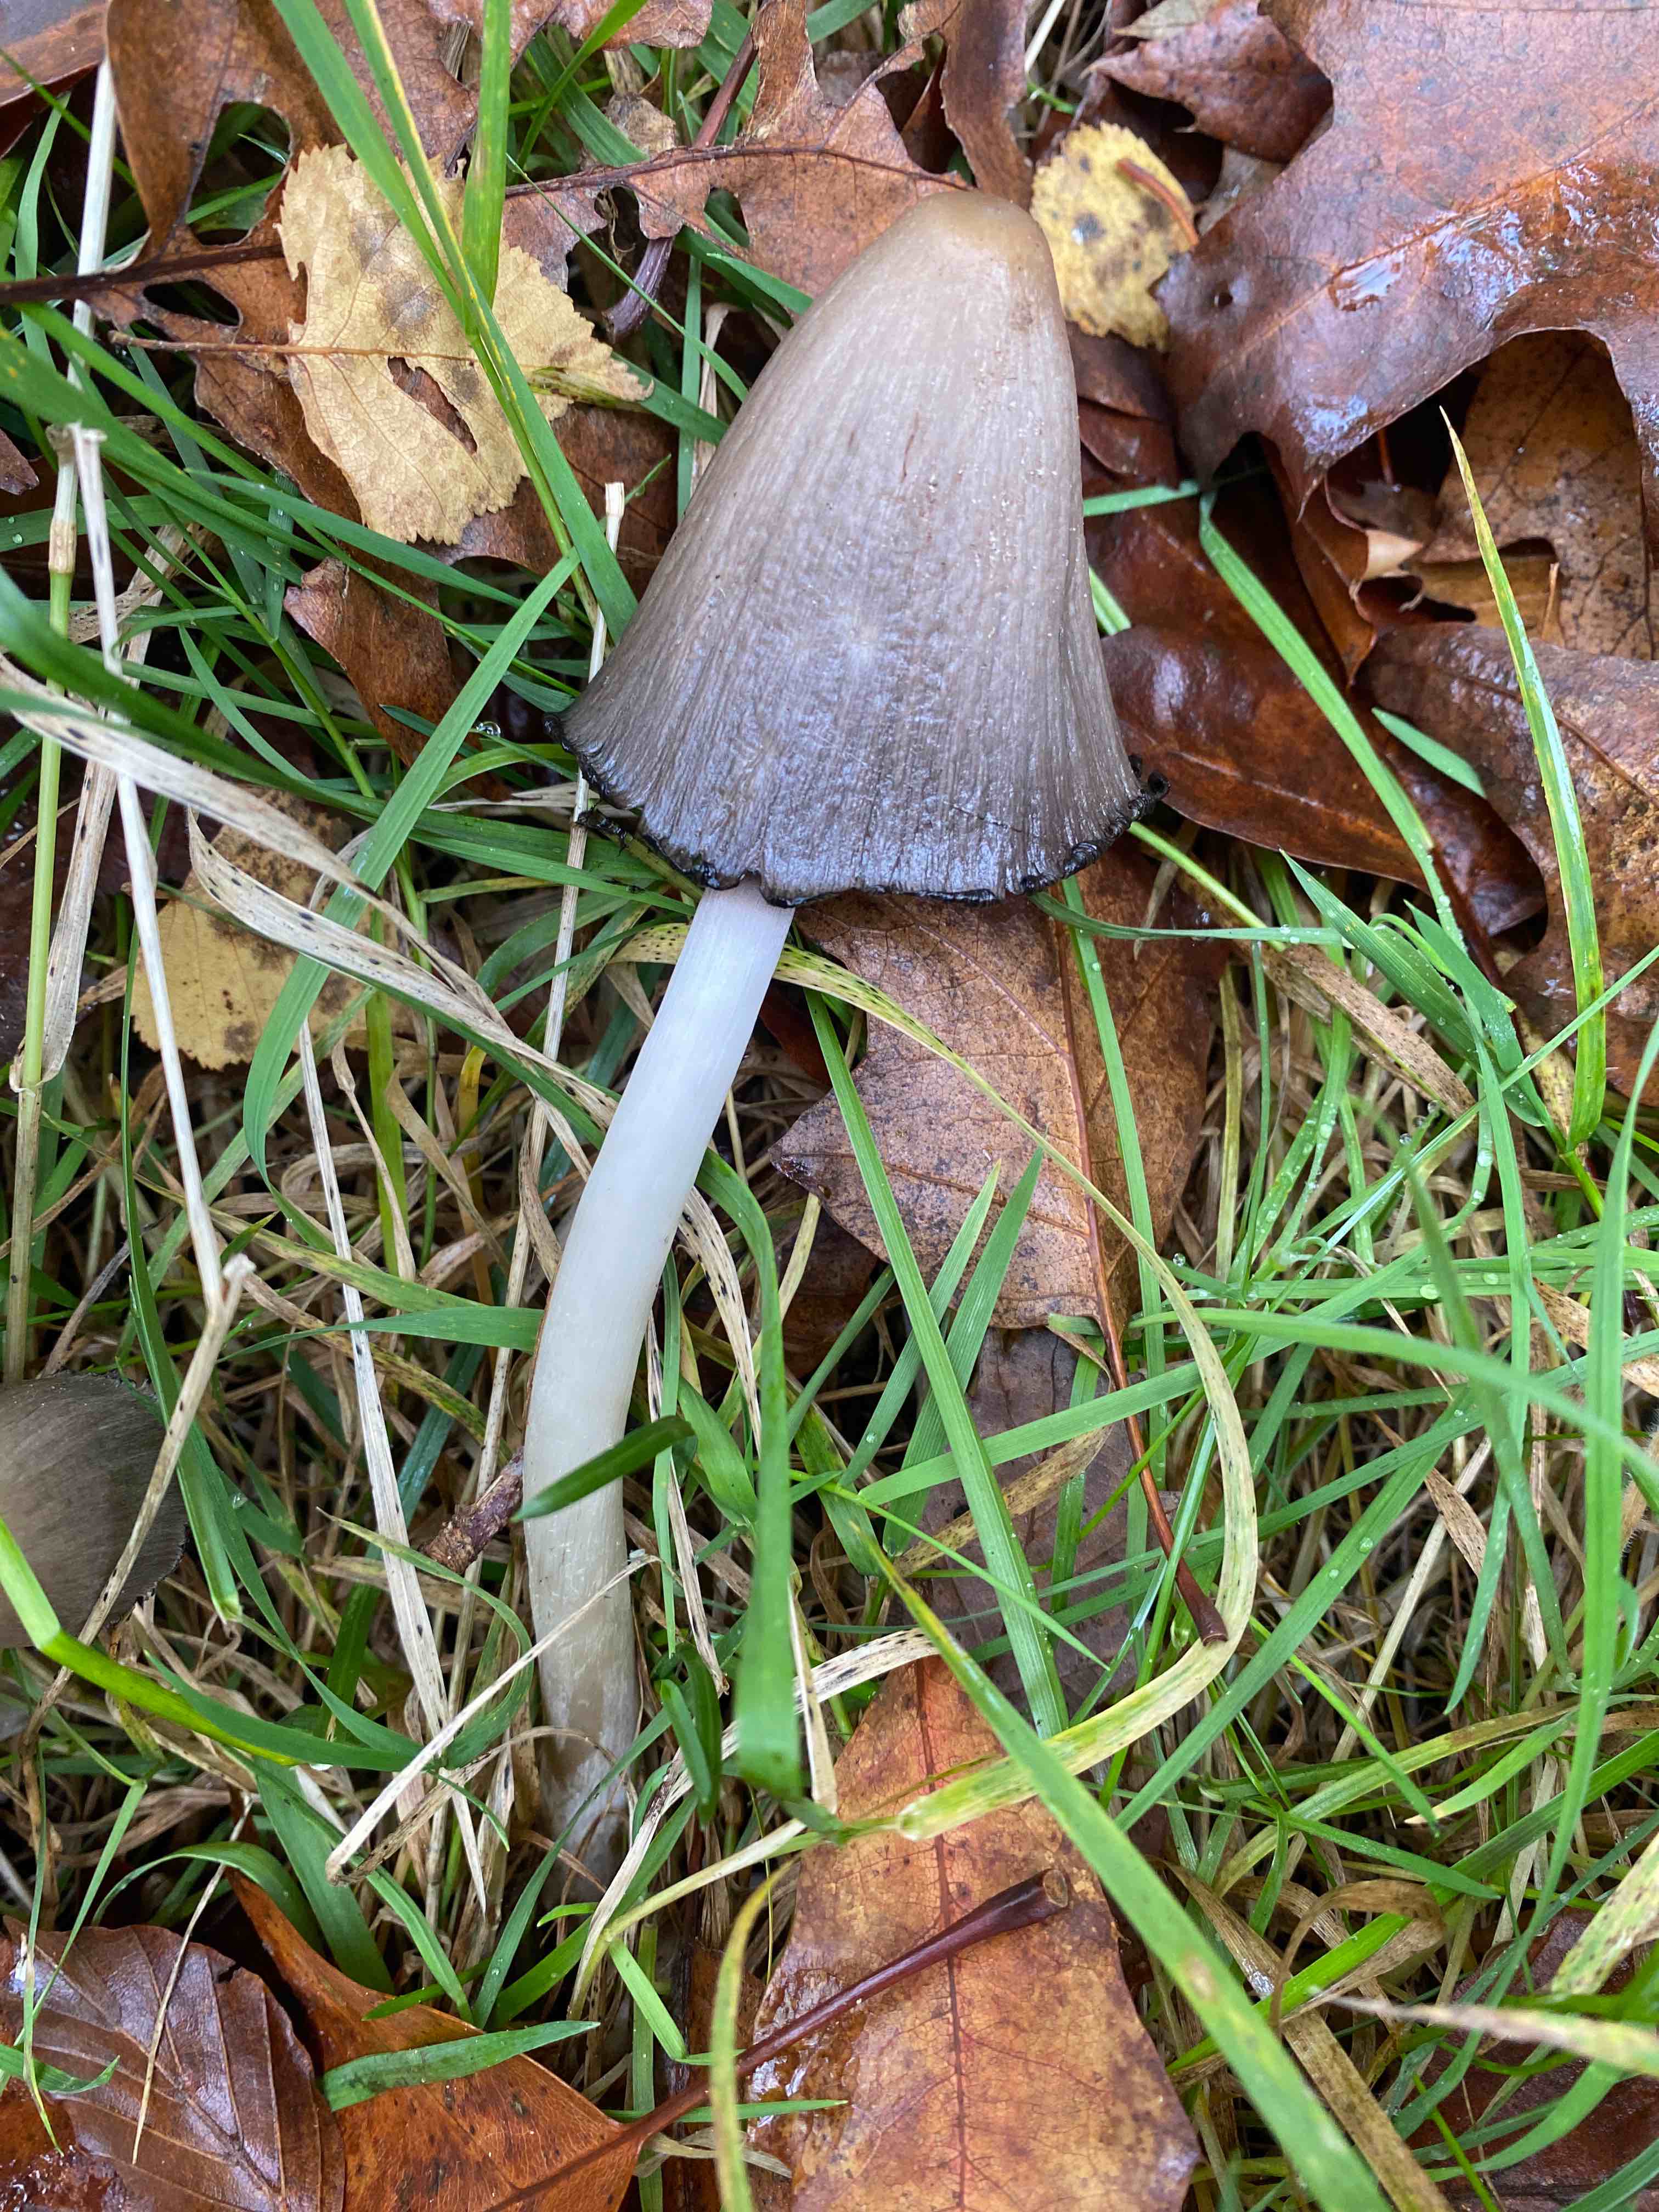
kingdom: Fungi
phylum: Basidiomycota
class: Agaricomycetes
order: Agaricales
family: Psathyrellaceae
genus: Coprinopsis
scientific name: Coprinopsis atramentaria
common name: almindelig blækhat
